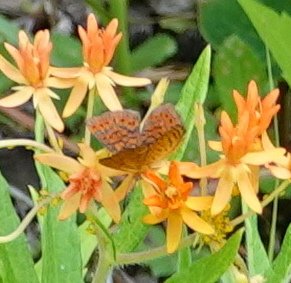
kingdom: Animalia
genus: Calephelis
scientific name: Calephelis virginiensis
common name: Little Metalmark
